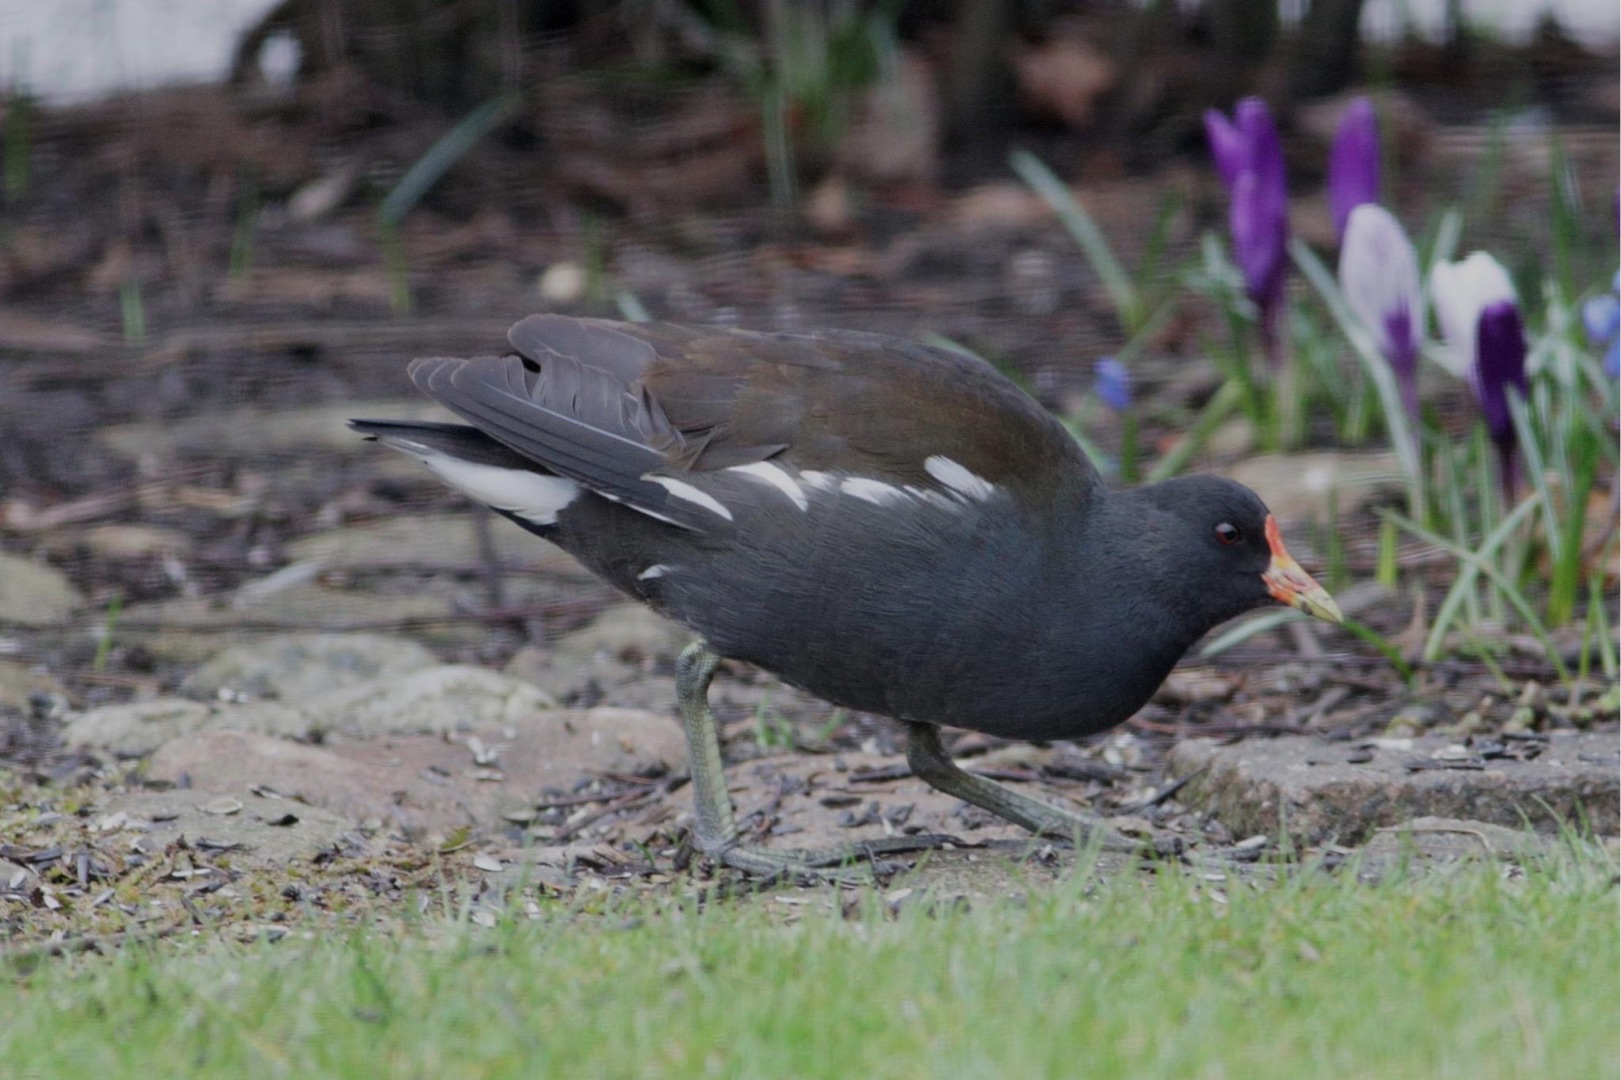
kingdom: Animalia
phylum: Chordata
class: Aves
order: Gruiformes
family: Rallidae
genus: Gallinula
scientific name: Gallinula chloropus
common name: Grønbenet rørhøne
